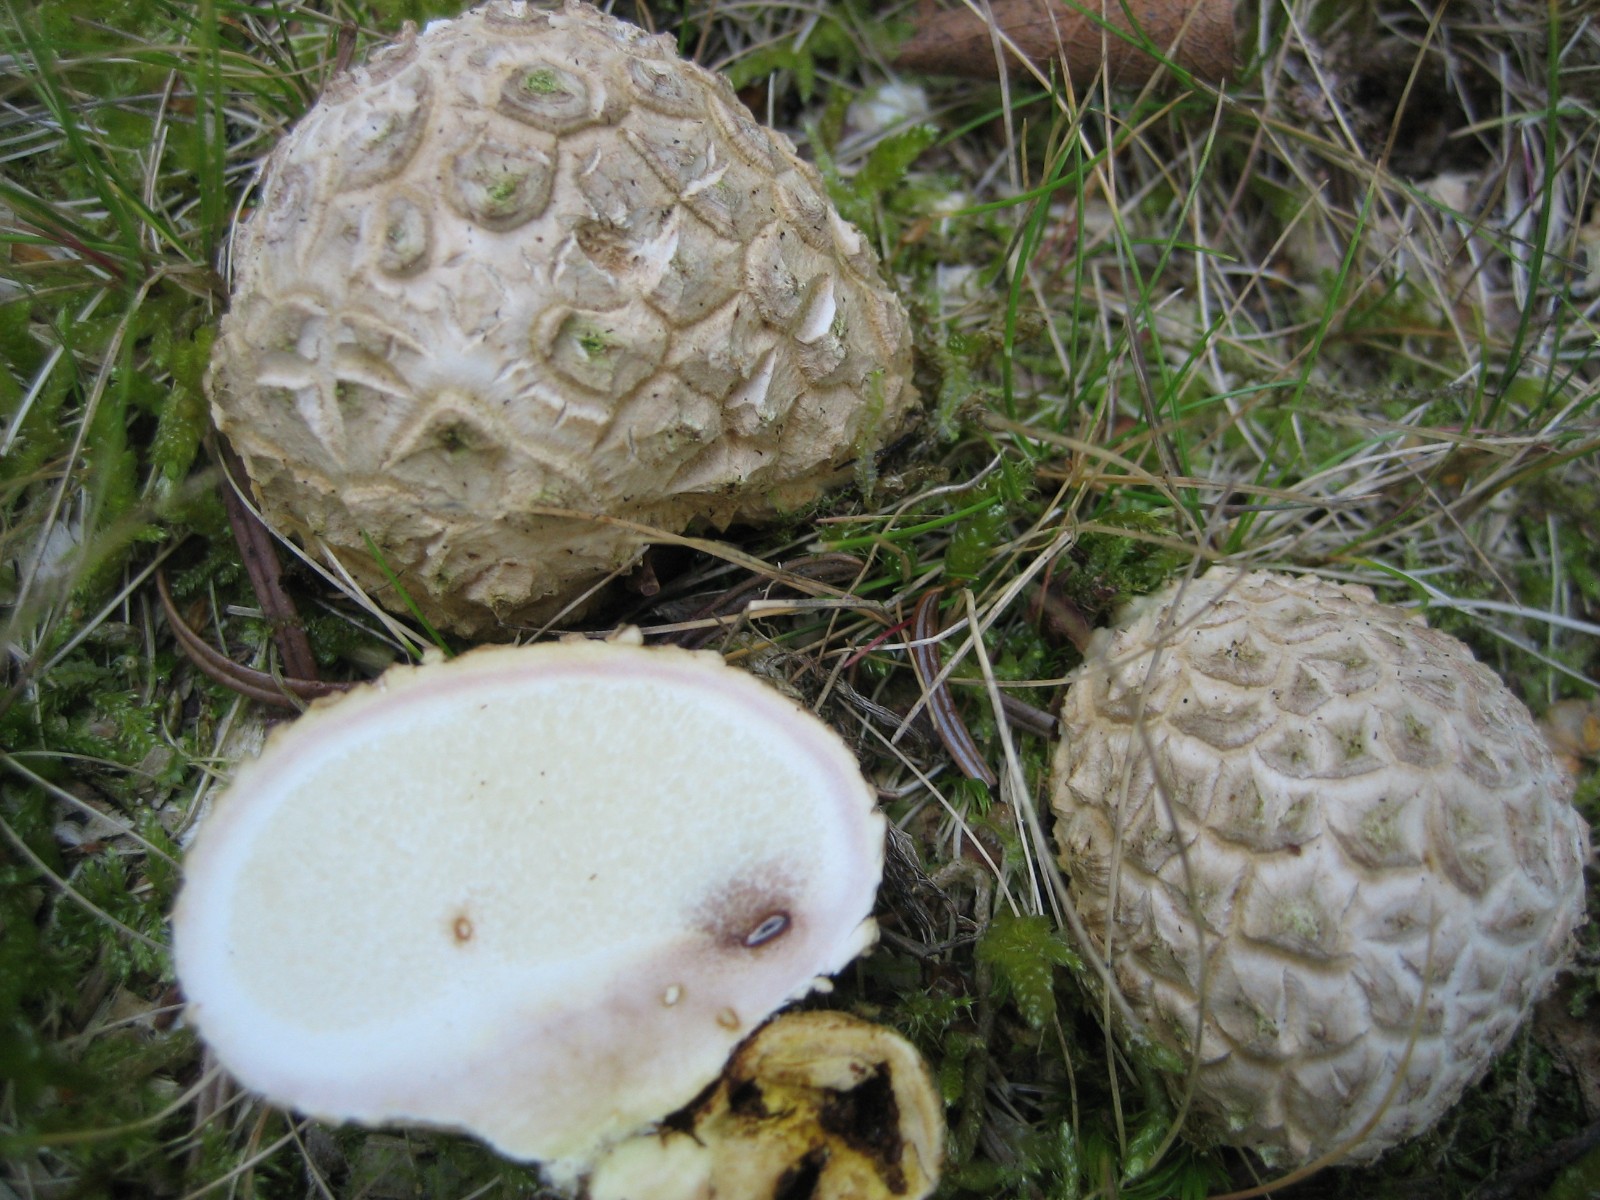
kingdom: Fungi
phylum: Basidiomycota
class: Agaricomycetes
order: Boletales
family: Sclerodermataceae
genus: Scleroderma
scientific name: Scleroderma citrinum
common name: almindelig bruskbold
